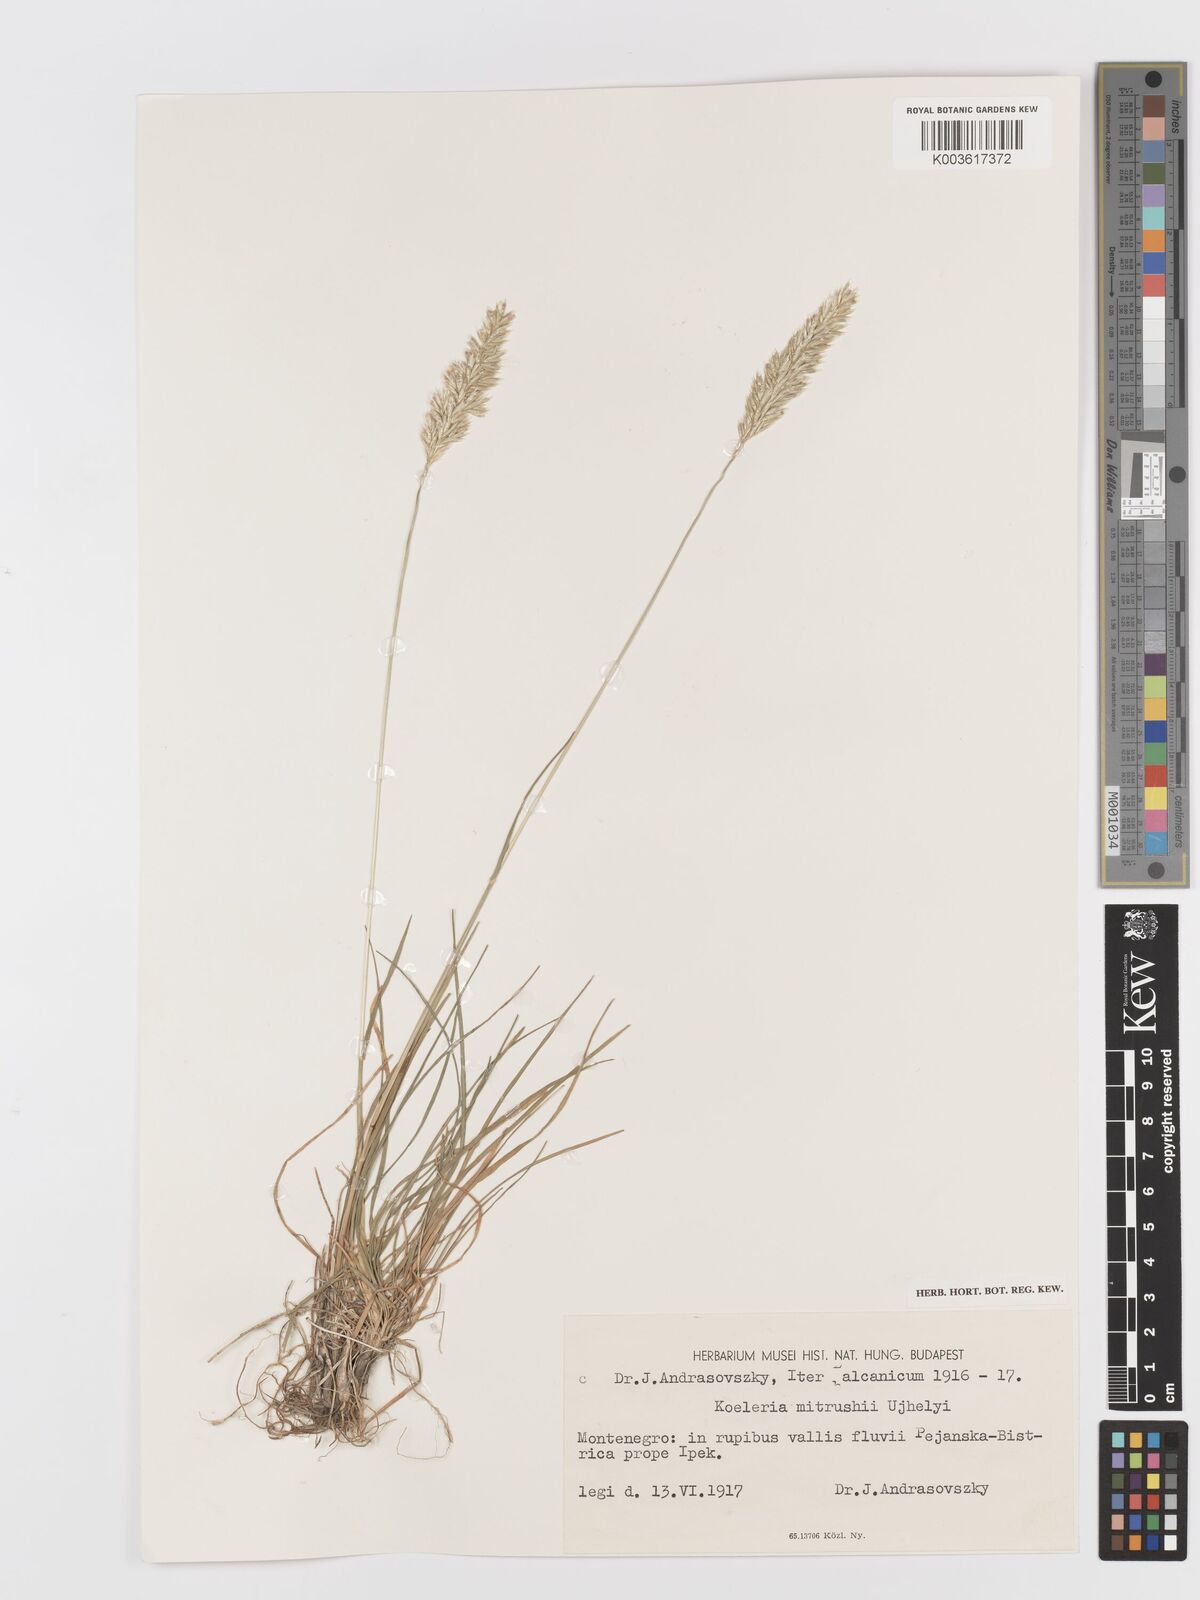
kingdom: Plantae
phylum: Tracheophyta
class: Liliopsida
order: Poales
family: Poaceae
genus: Koeleria
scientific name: Koeleria
